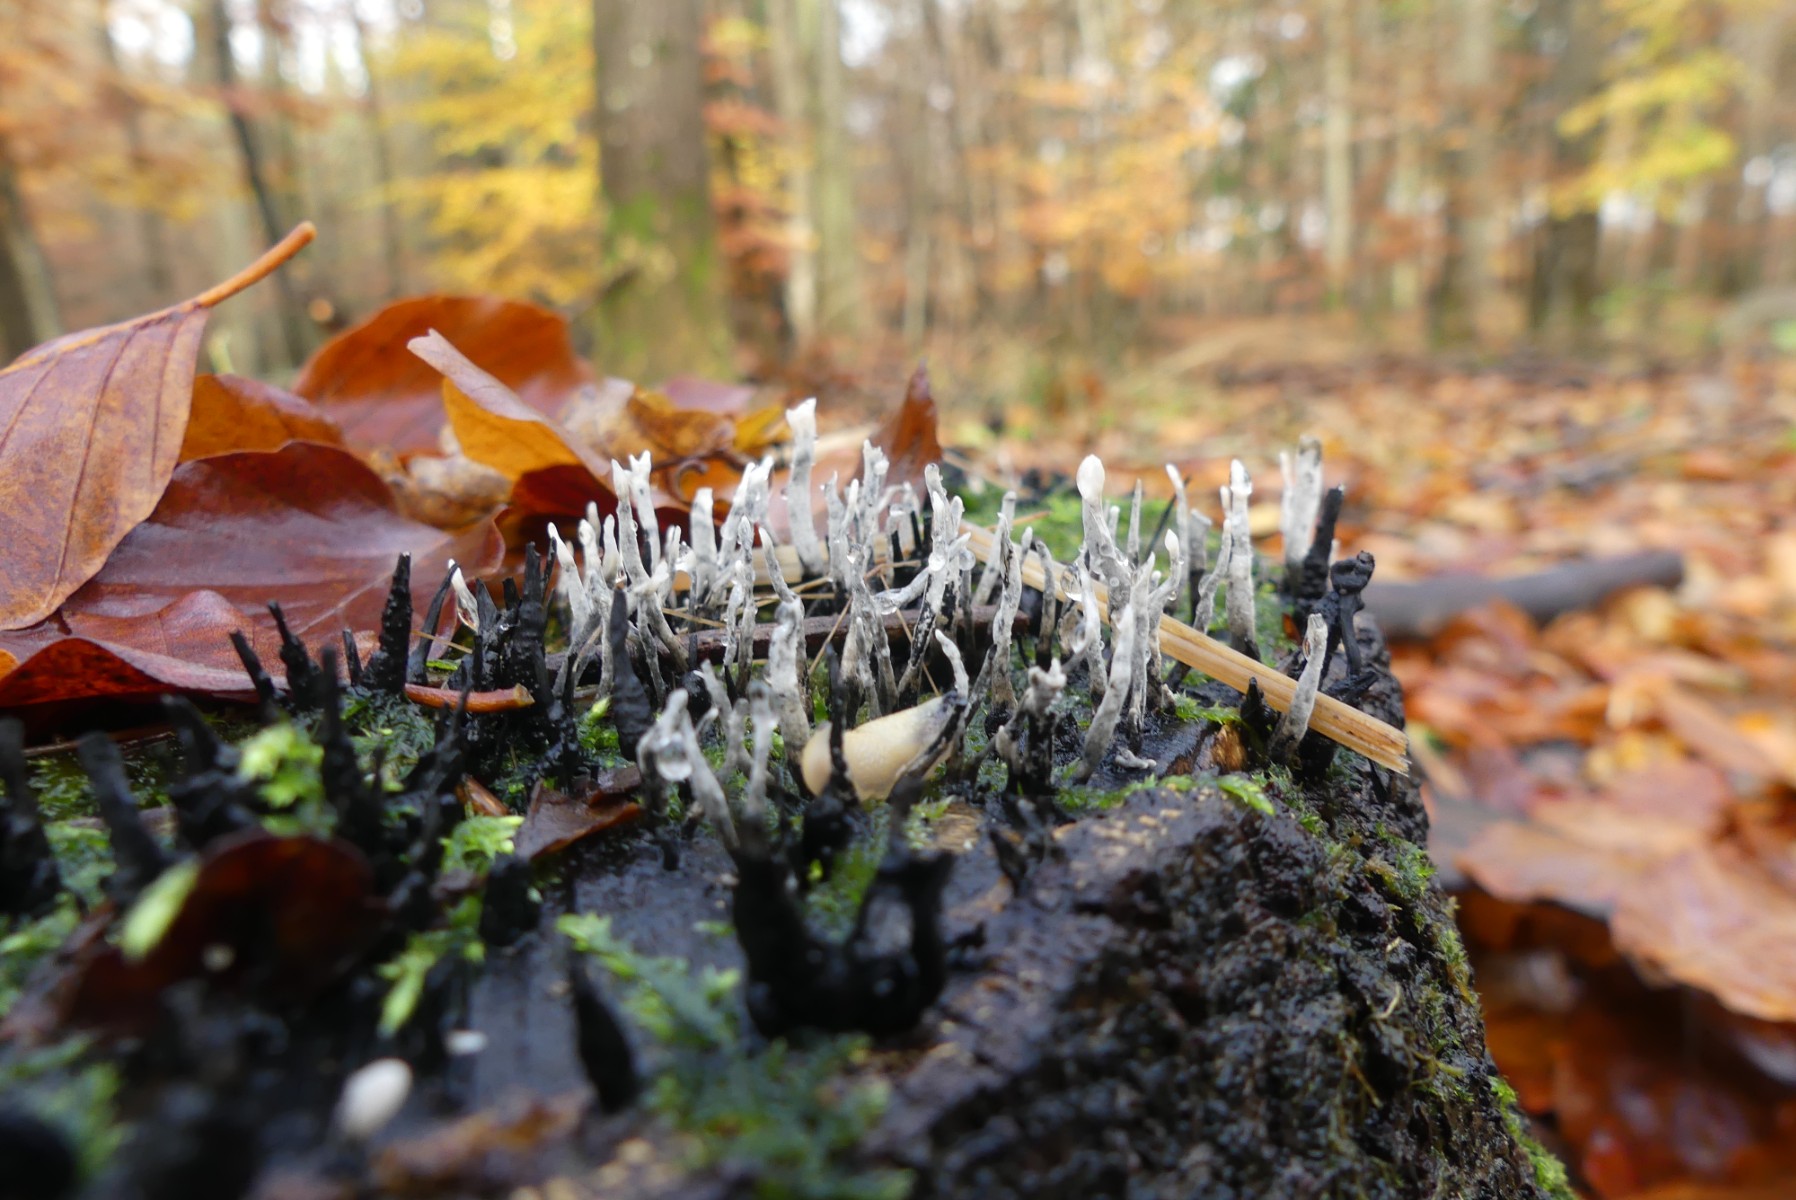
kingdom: Fungi
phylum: Ascomycota
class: Sordariomycetes
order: Xylariales
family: Xylariaceae
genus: Xylaria
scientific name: Xylaria hypoxylon
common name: grenet stødsvamp
